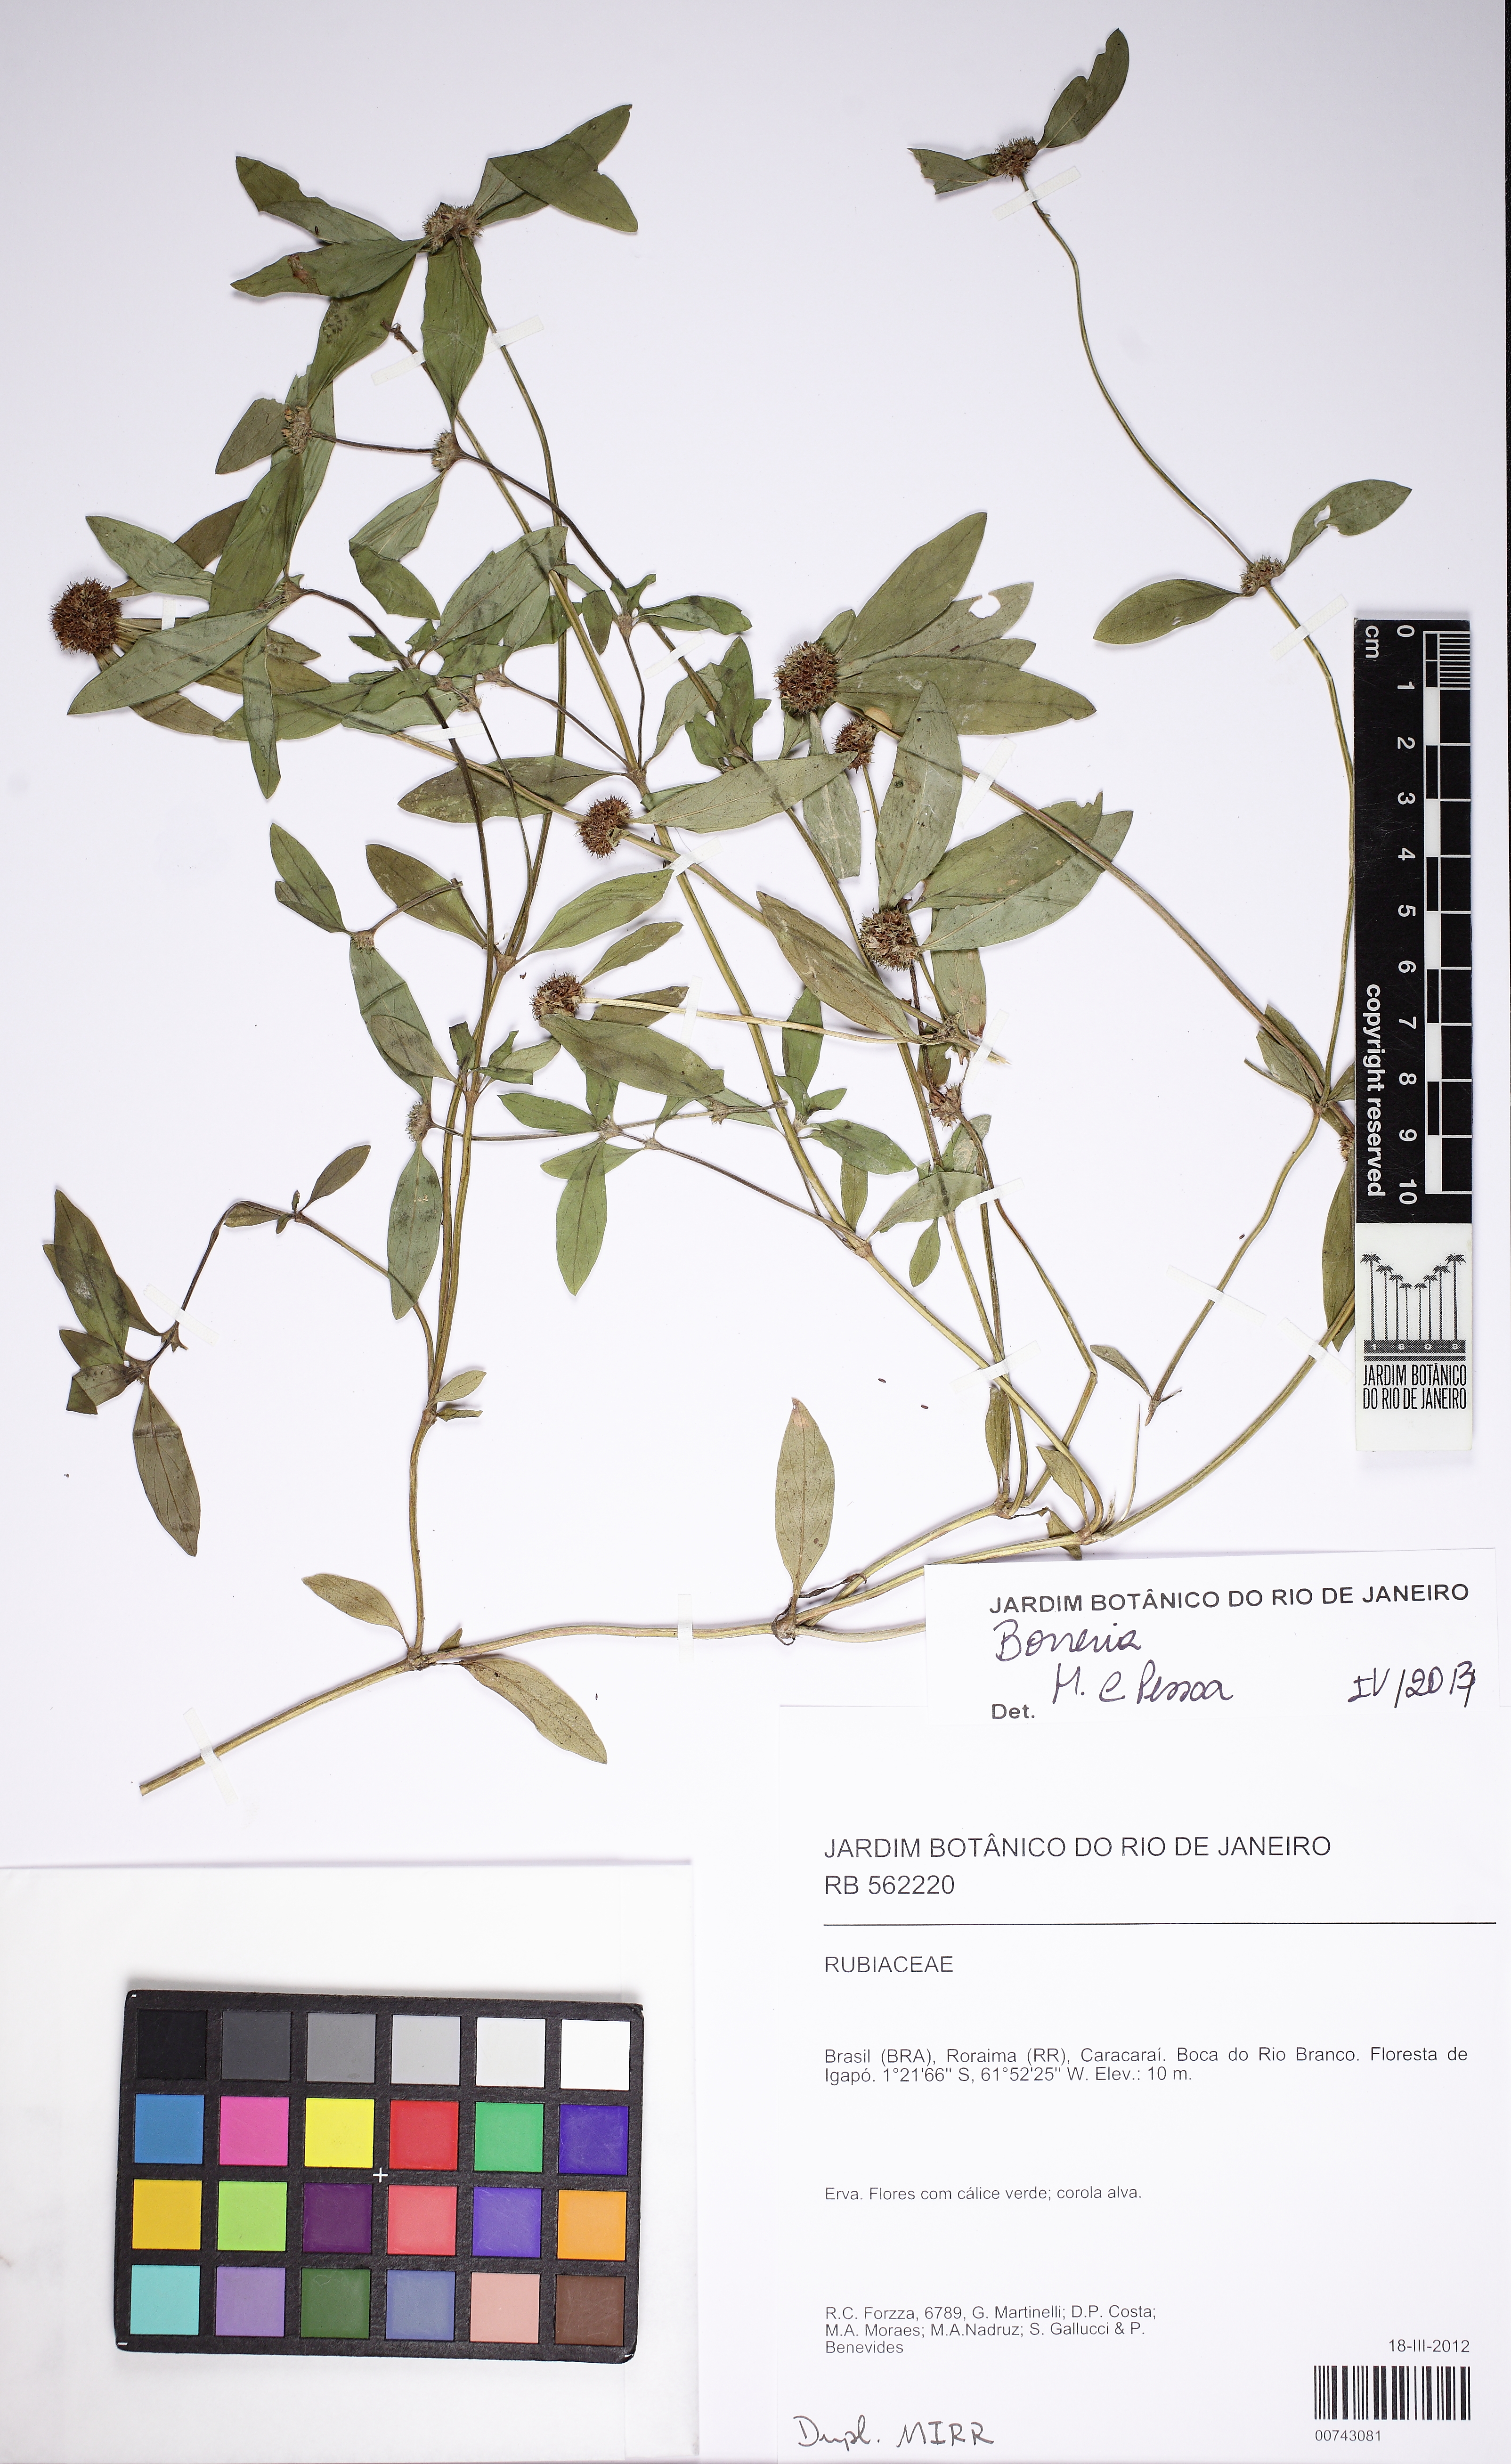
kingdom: Plantae
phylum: Tracheophyta
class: Magnoliopsida
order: Gentianales
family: Rubiaceae
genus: Spermacoce
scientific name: Spermacoce cupularis
